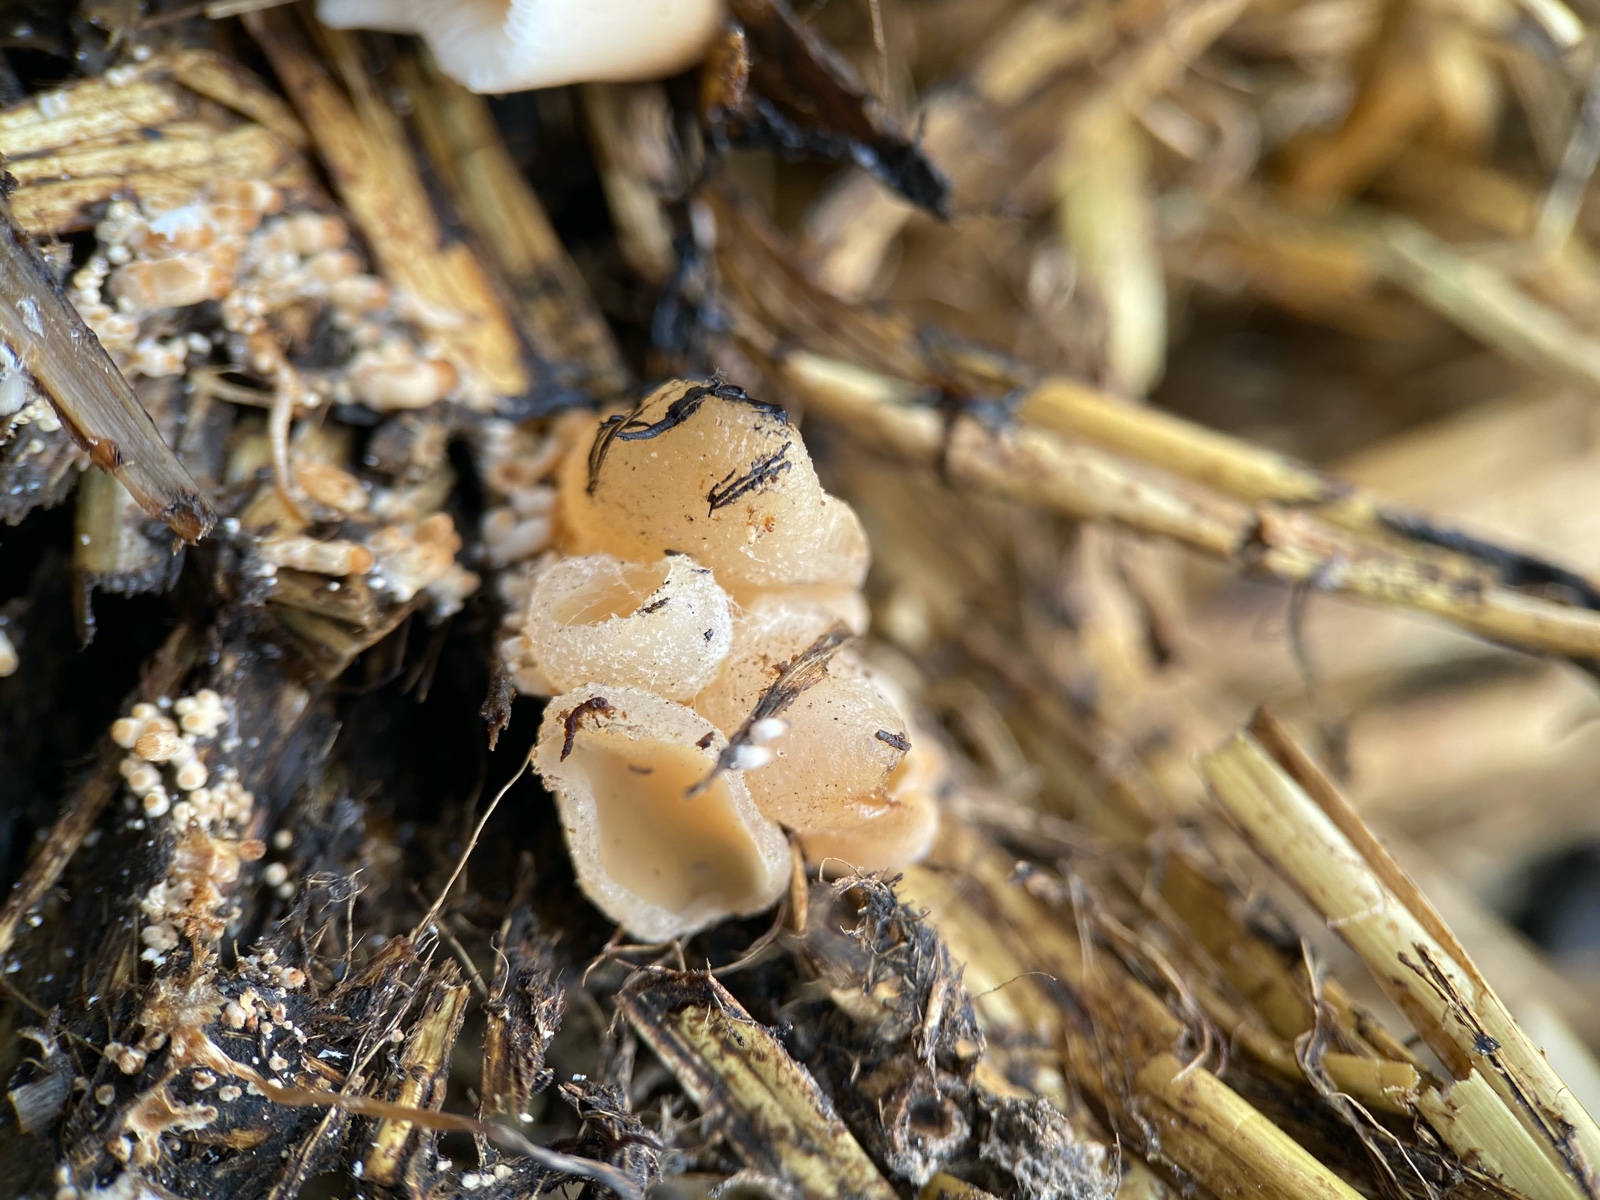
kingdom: Fungi
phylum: Ascomycota
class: Pezizomycetes
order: Pezizales
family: Pezizaceae
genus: Peziza
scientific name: Peziza
